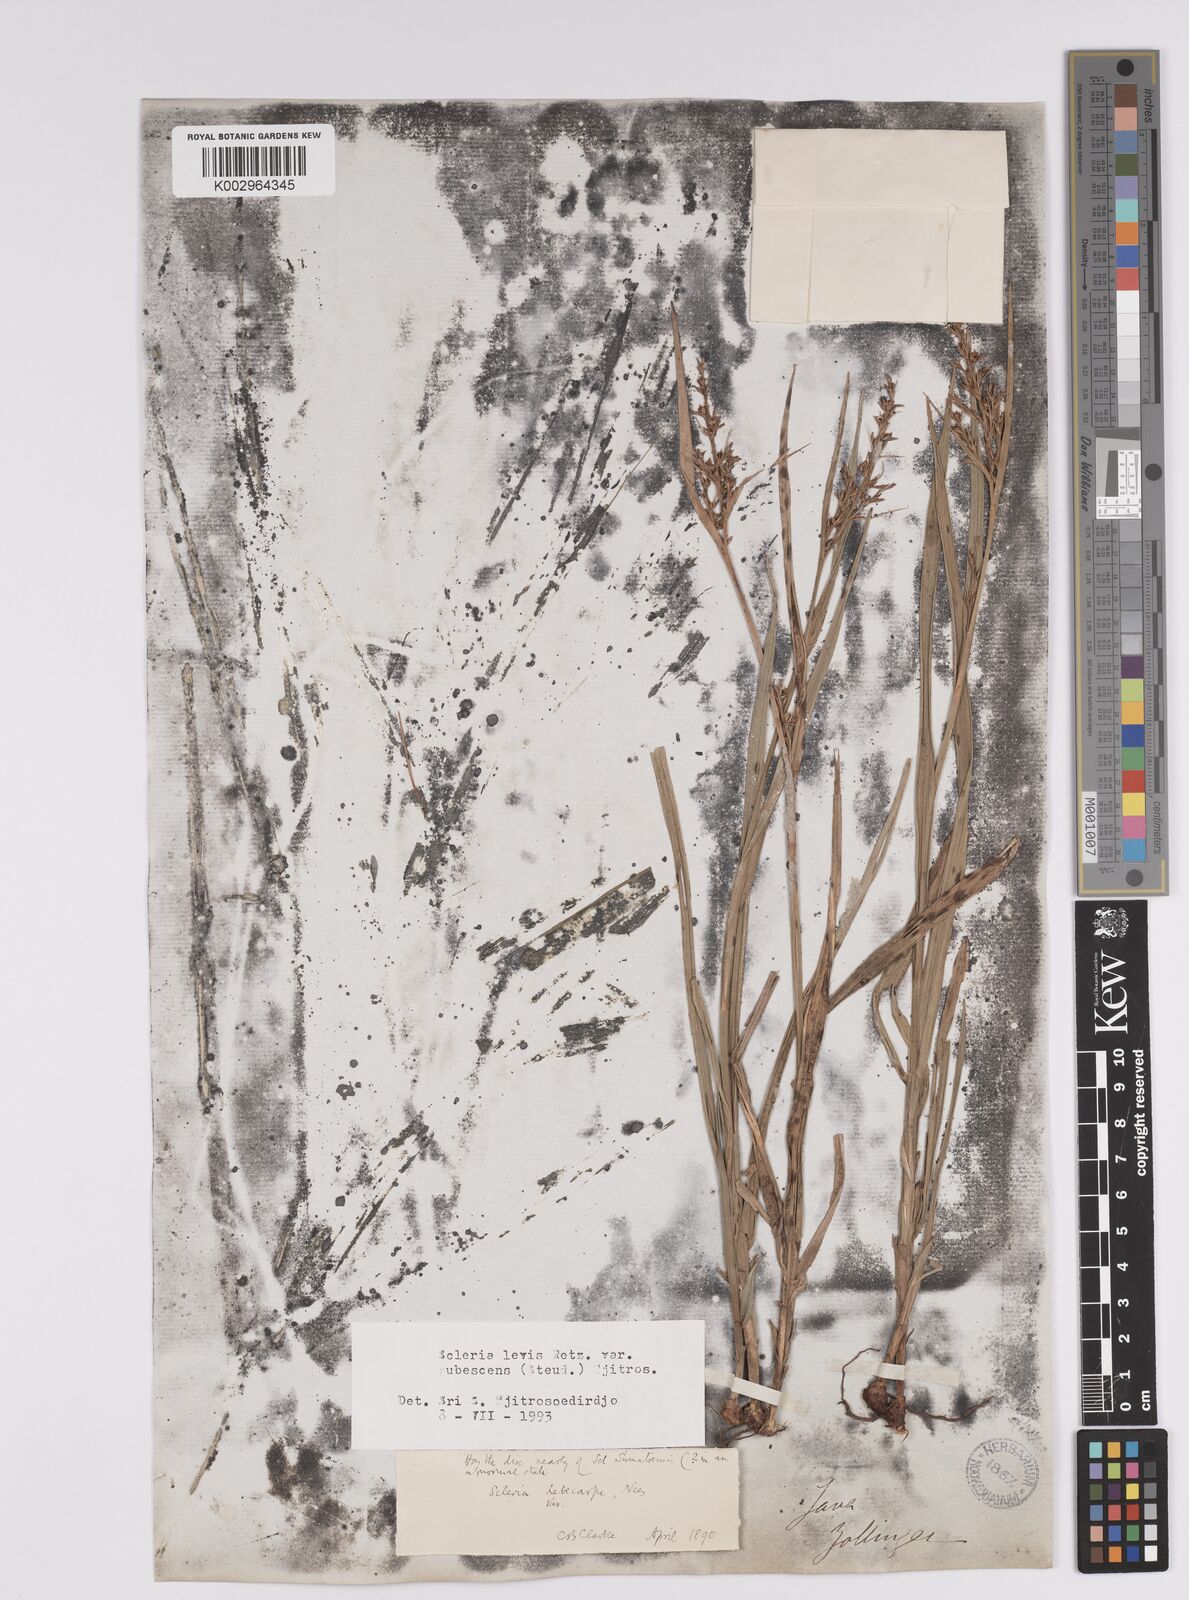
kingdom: Plantae
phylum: Tracheophyta
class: Liliopsida
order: Poales
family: Cyperaceae
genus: Scleria
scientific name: Scleria levis
